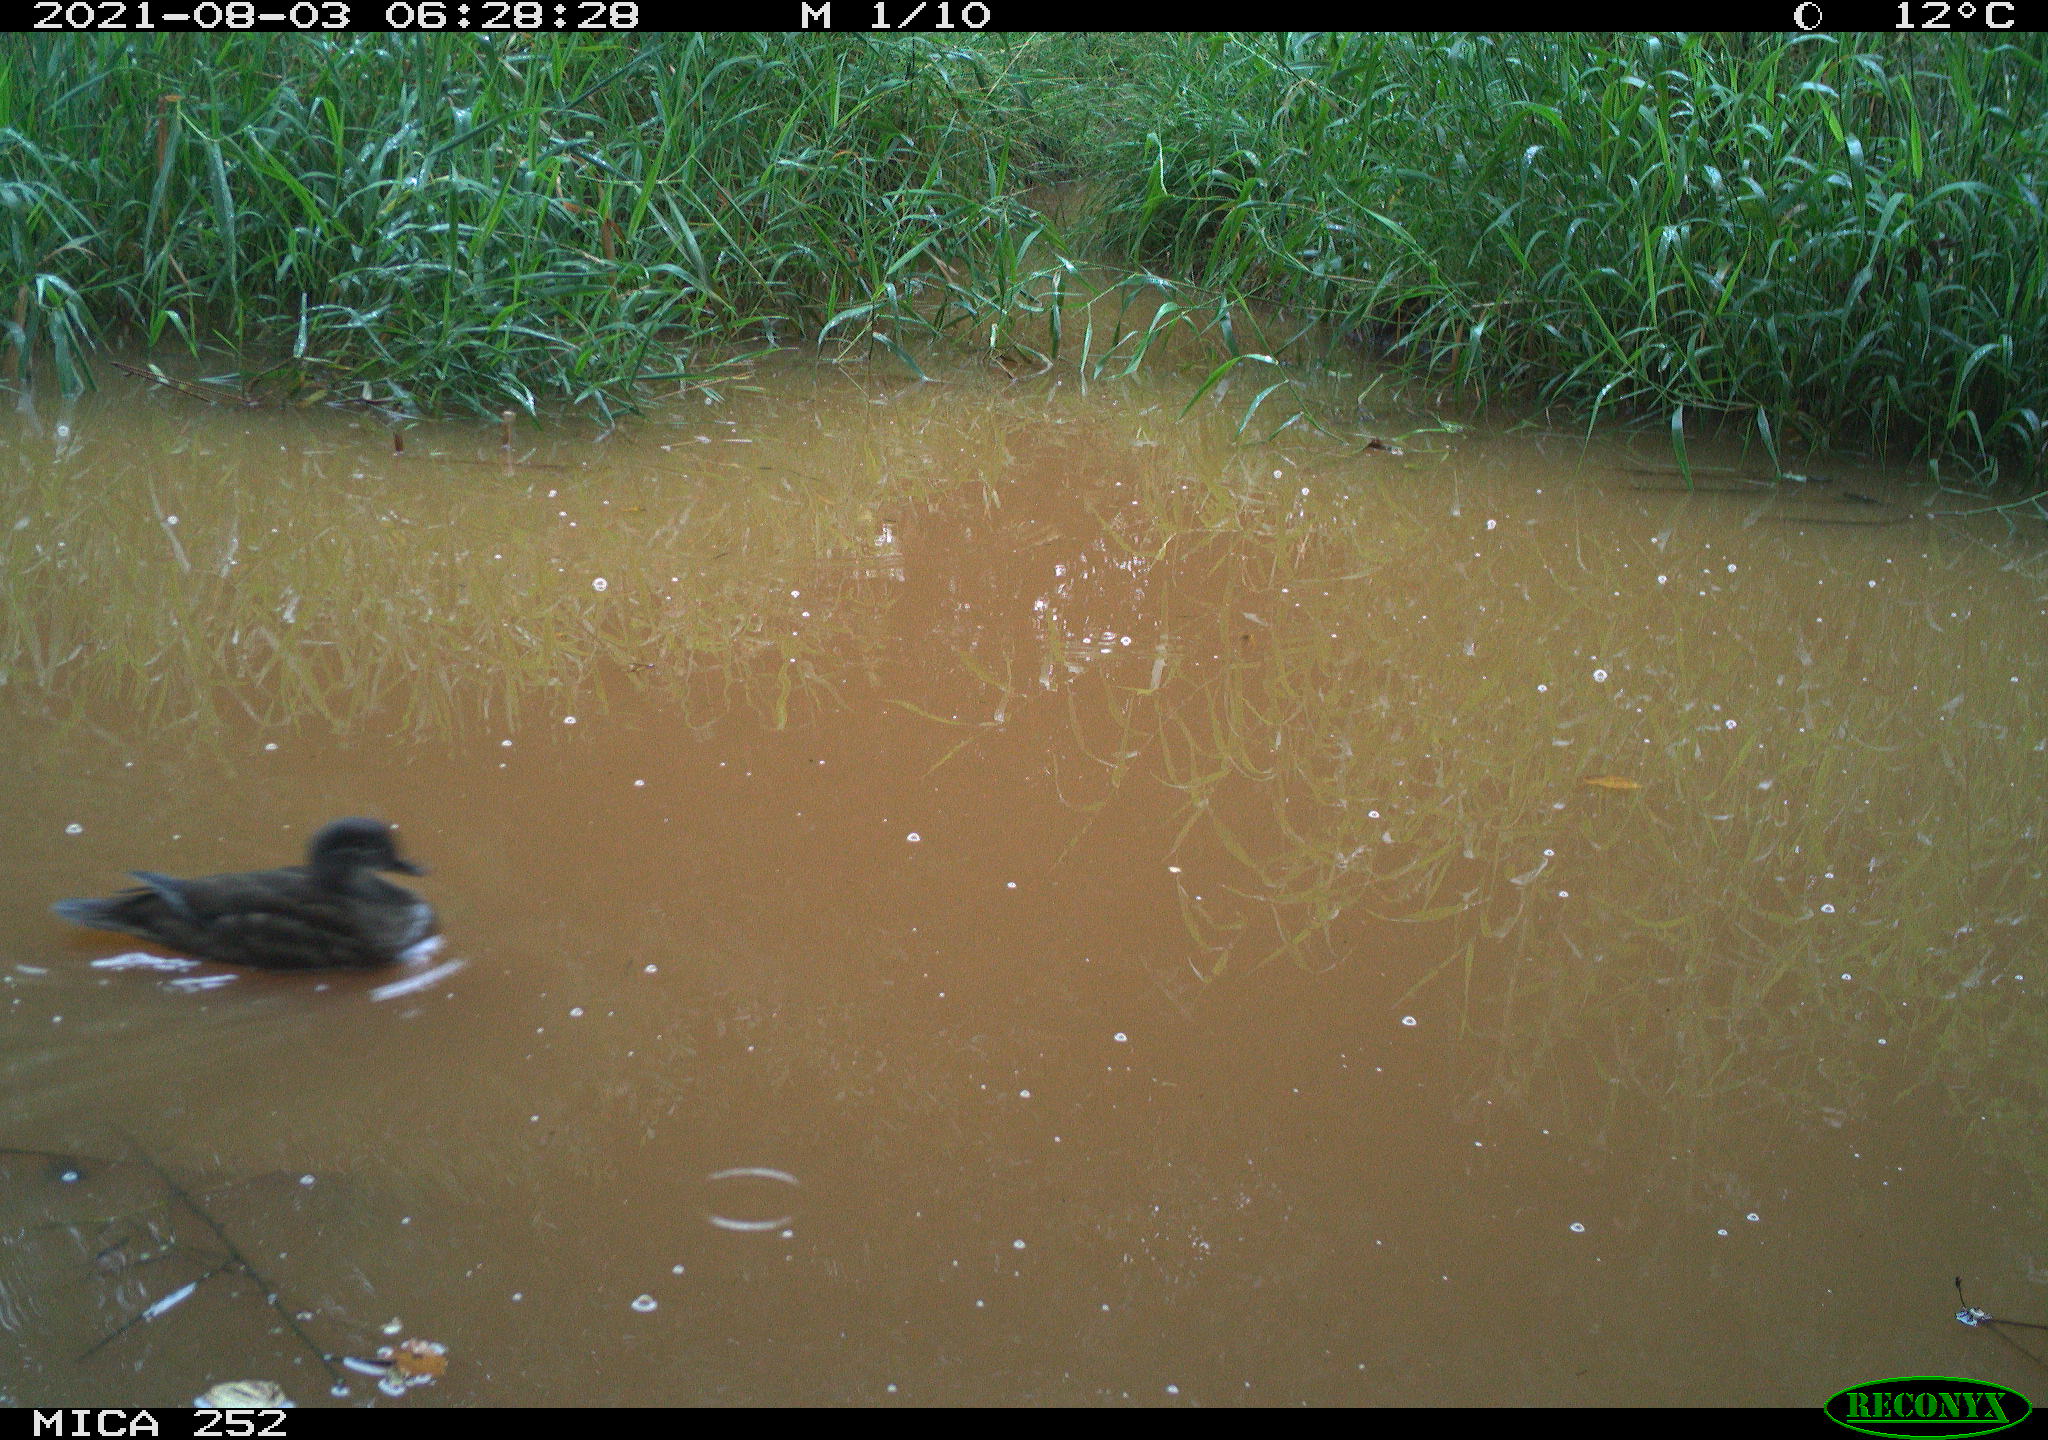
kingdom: Animalia
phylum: Chordata
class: Aves
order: Anseriformes
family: Anatidae
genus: Mareca
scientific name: Mareca strepera
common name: Gadwall
